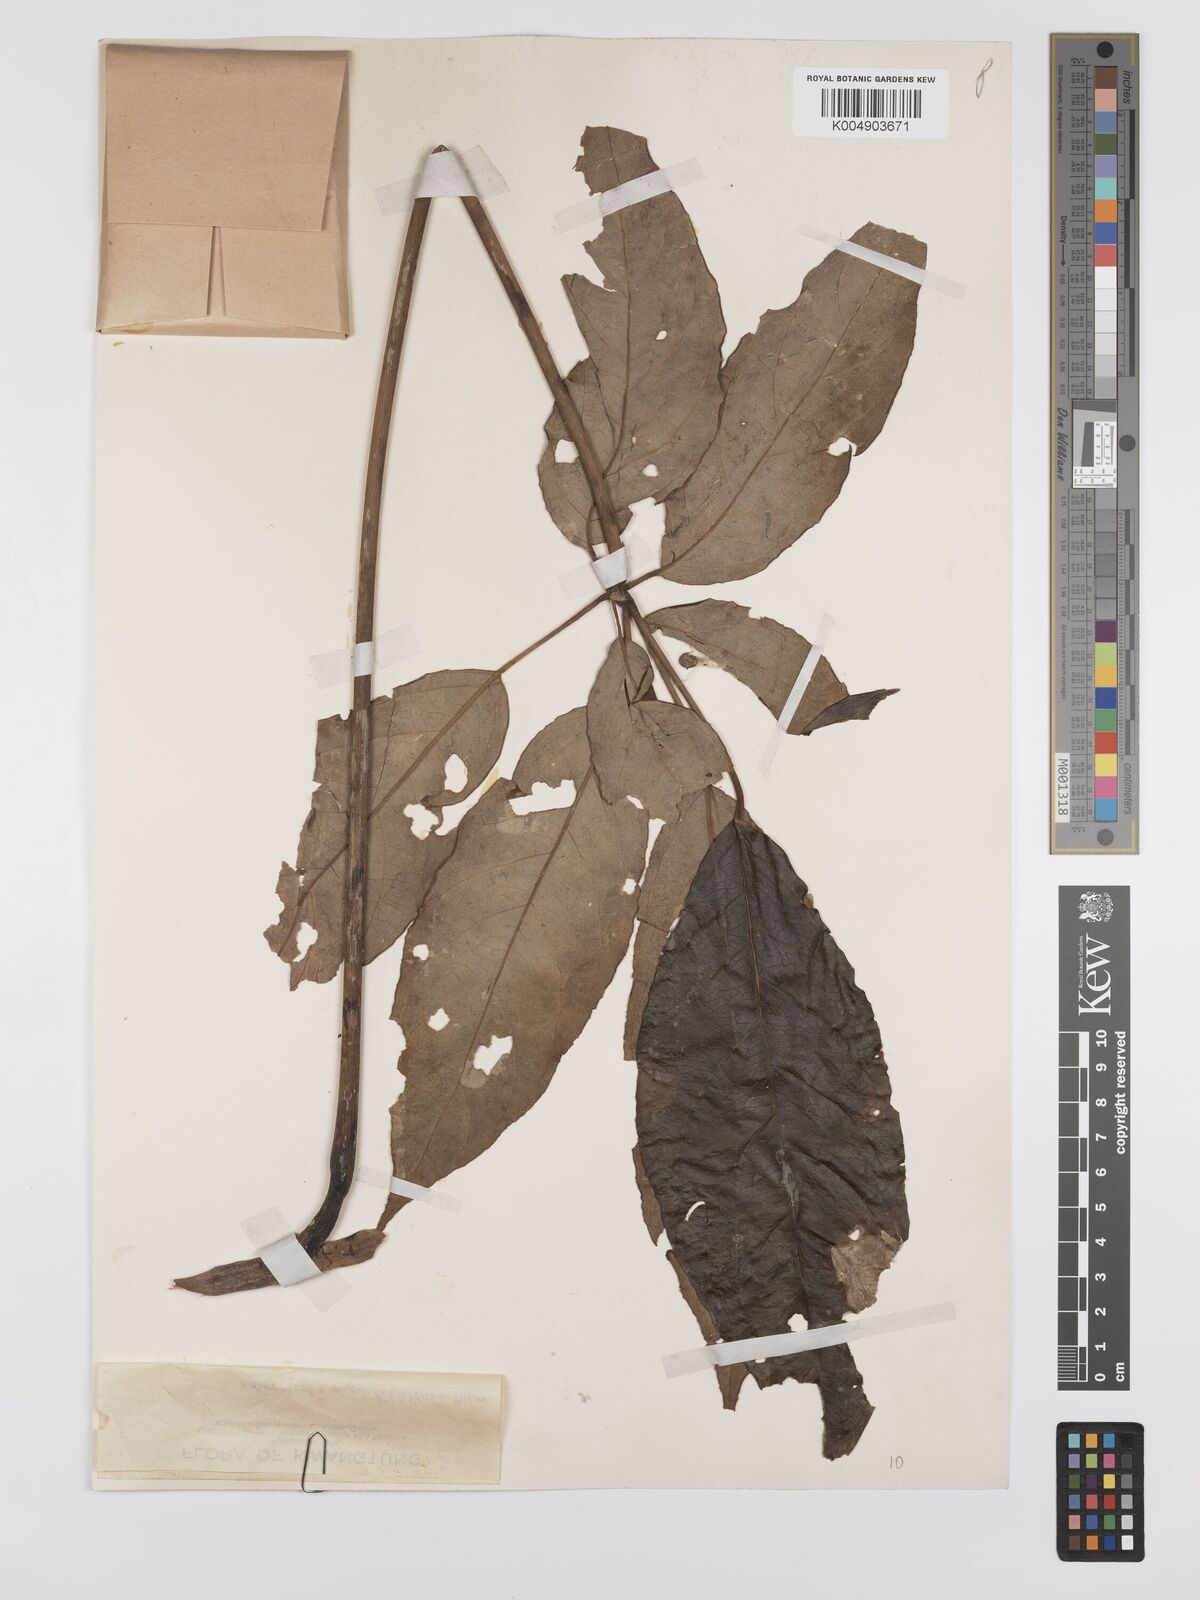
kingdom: Plantae
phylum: Tracheophyta
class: Magnoliopsida
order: Apiales
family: Araliaceae
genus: Heptapleurum
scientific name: Heptapleurum minutistellatum
